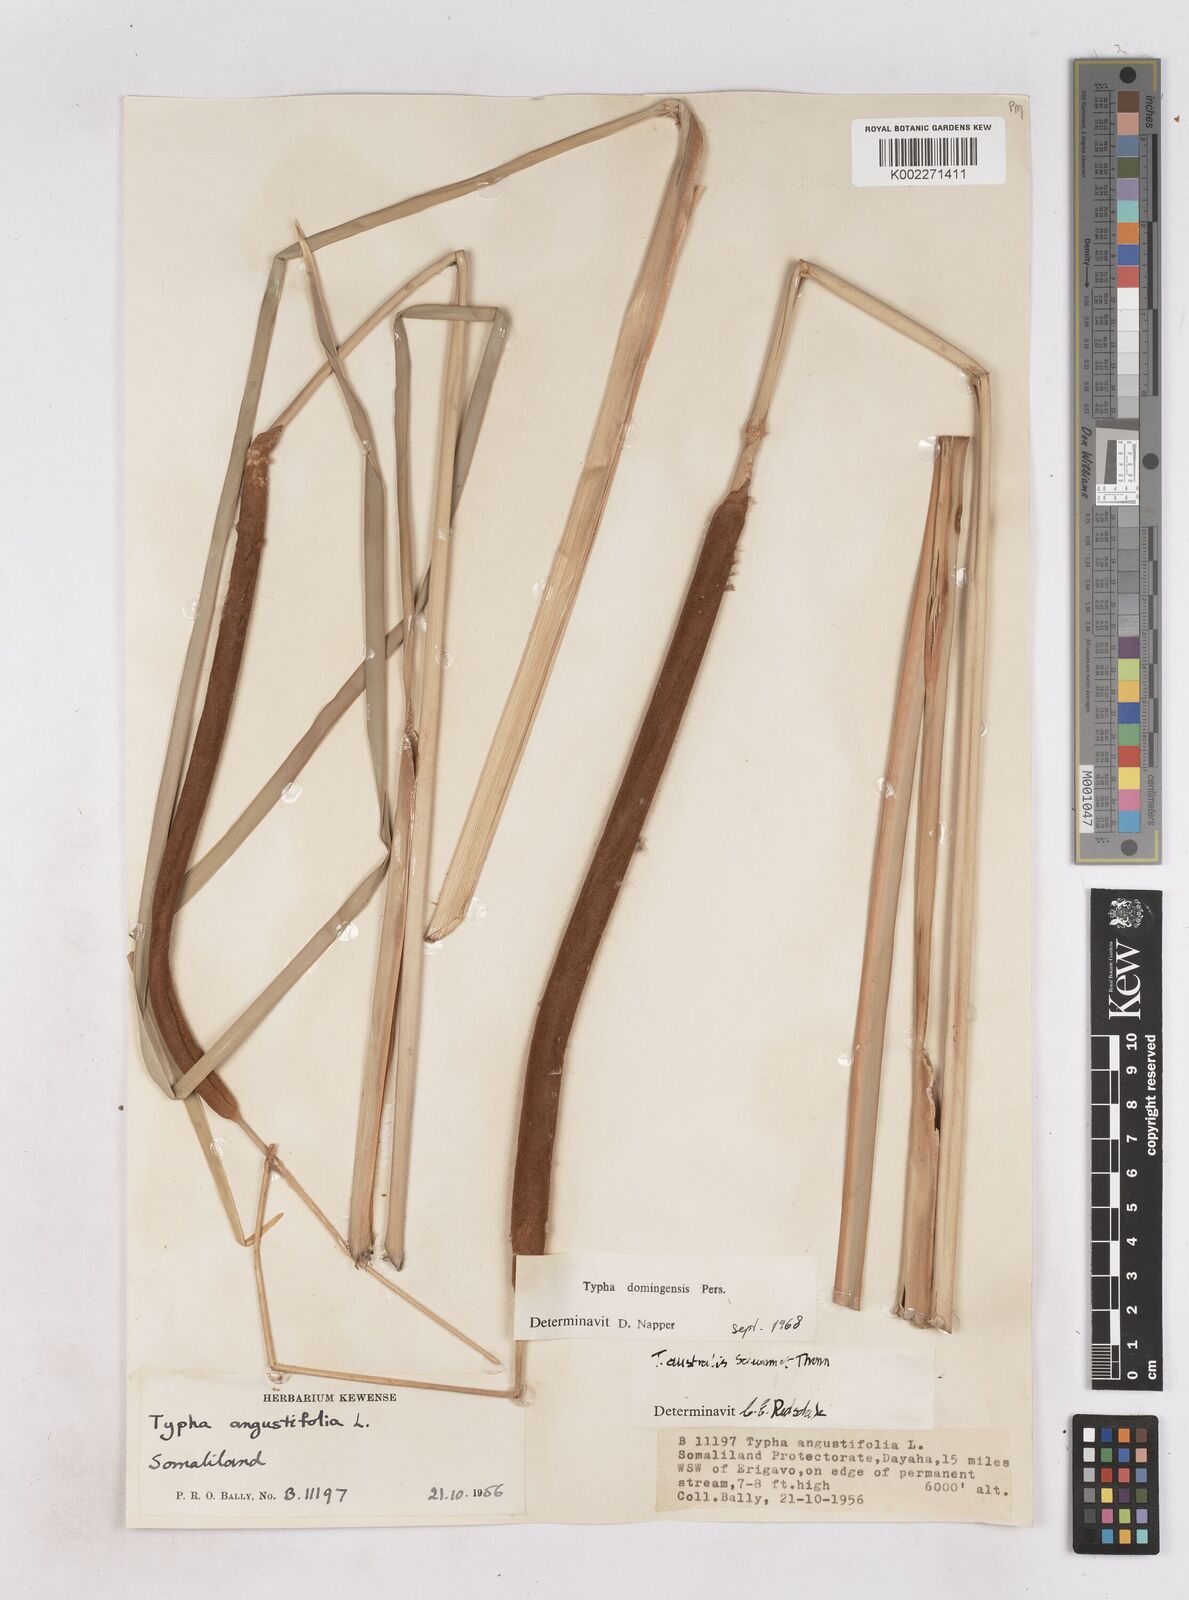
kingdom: Plantae
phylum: Tracheophyta
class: Liliopsida
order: Poales
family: Typhaceae
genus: Typha
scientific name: Typha domingensis
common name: Southern cattail
